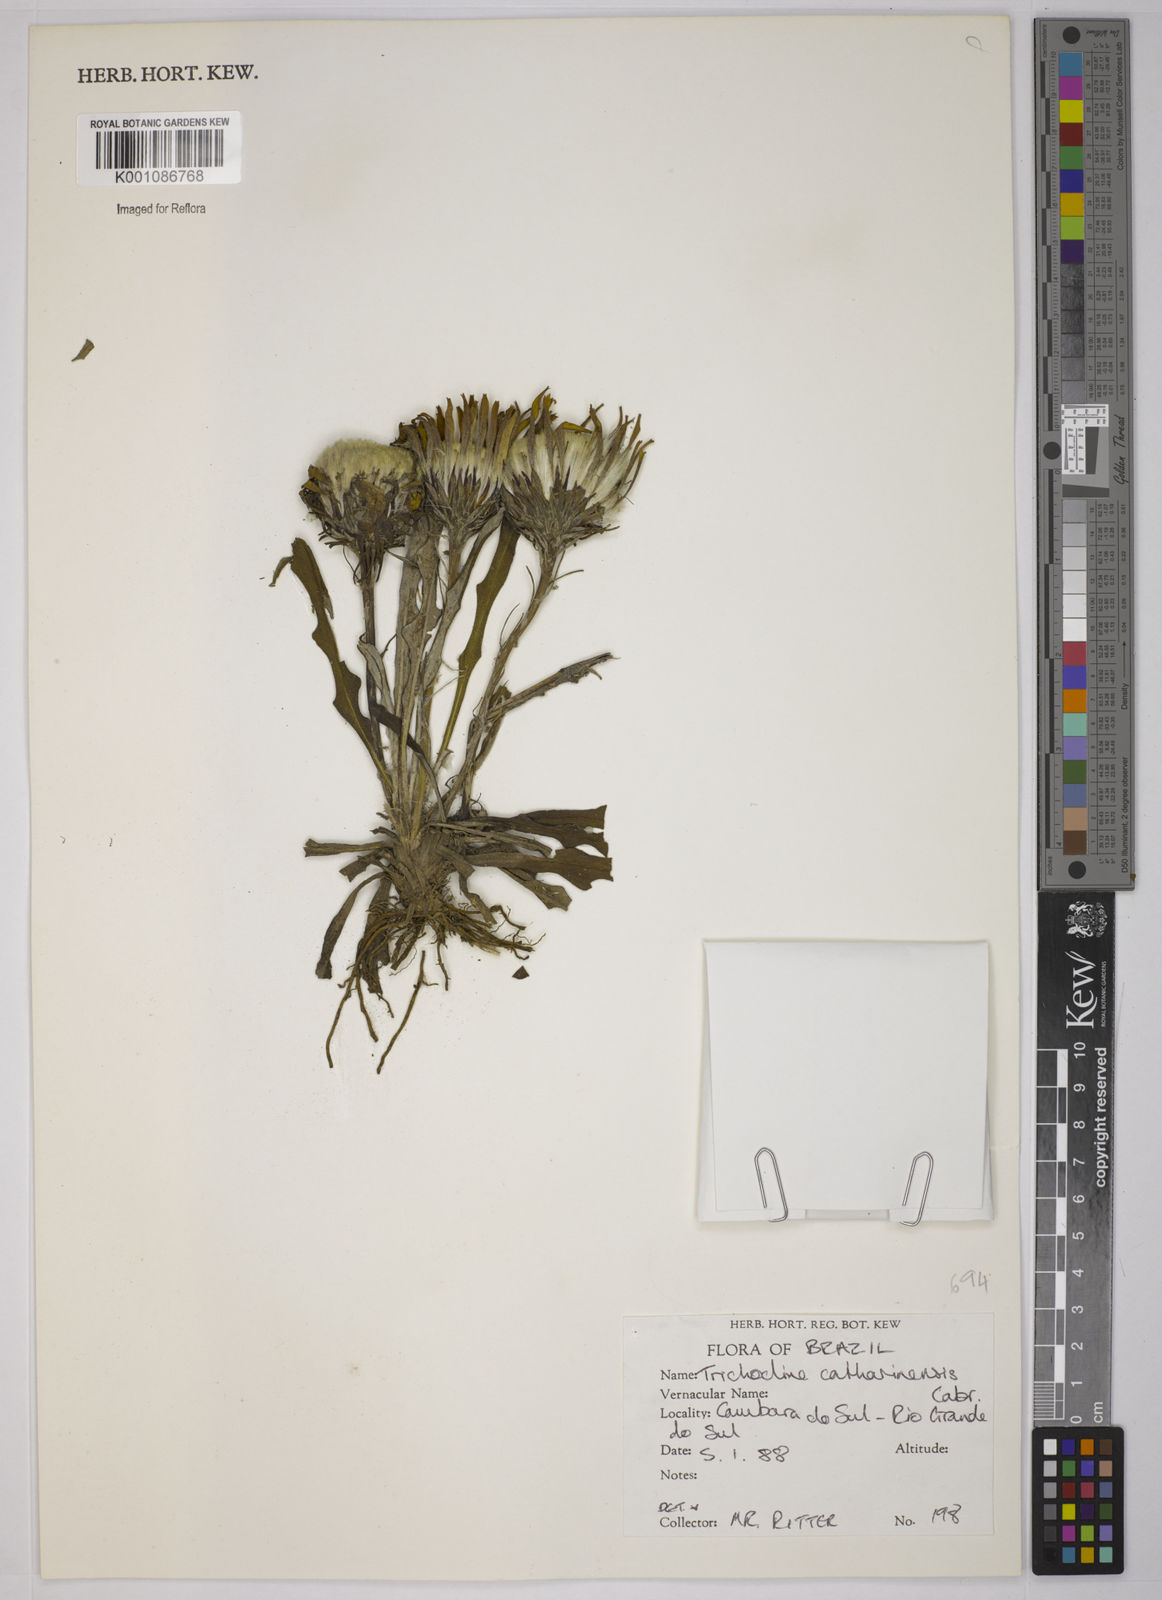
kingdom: Plantae
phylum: Tracheophyta
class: Magnoliopsida
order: Asterales
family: Asteraceae
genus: Trichocline
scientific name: Trichocline catharinensis
